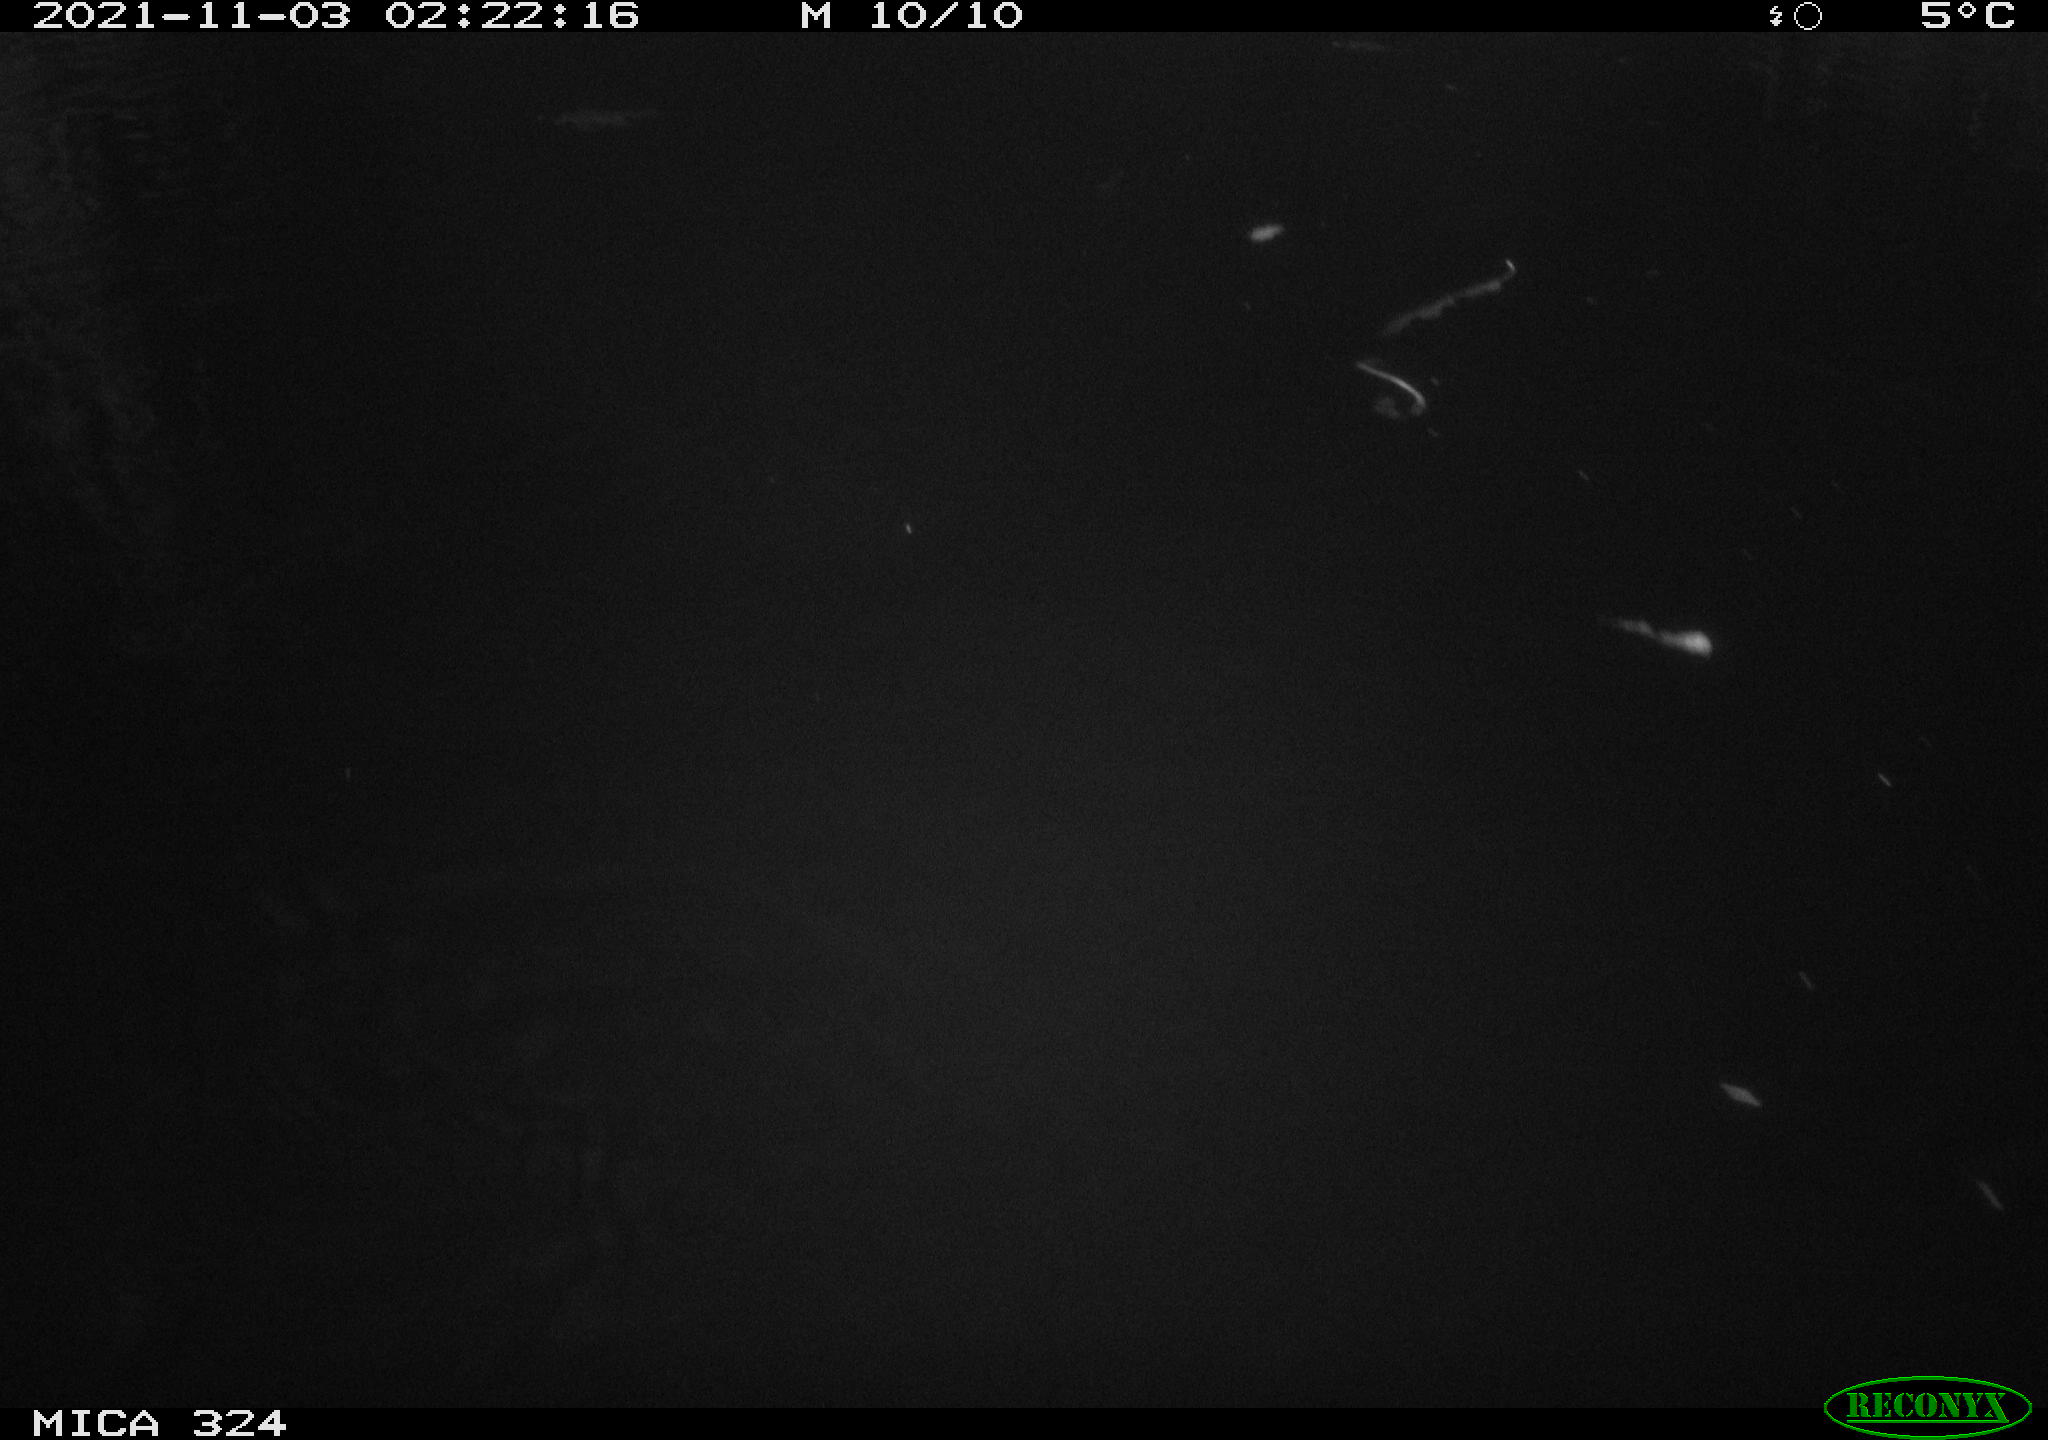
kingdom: Animalia
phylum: Chordata
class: Mammalia
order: Rodentia
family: Cricetidae
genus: Ondatra
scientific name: Ondatra zibethicus
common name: Muskrat
